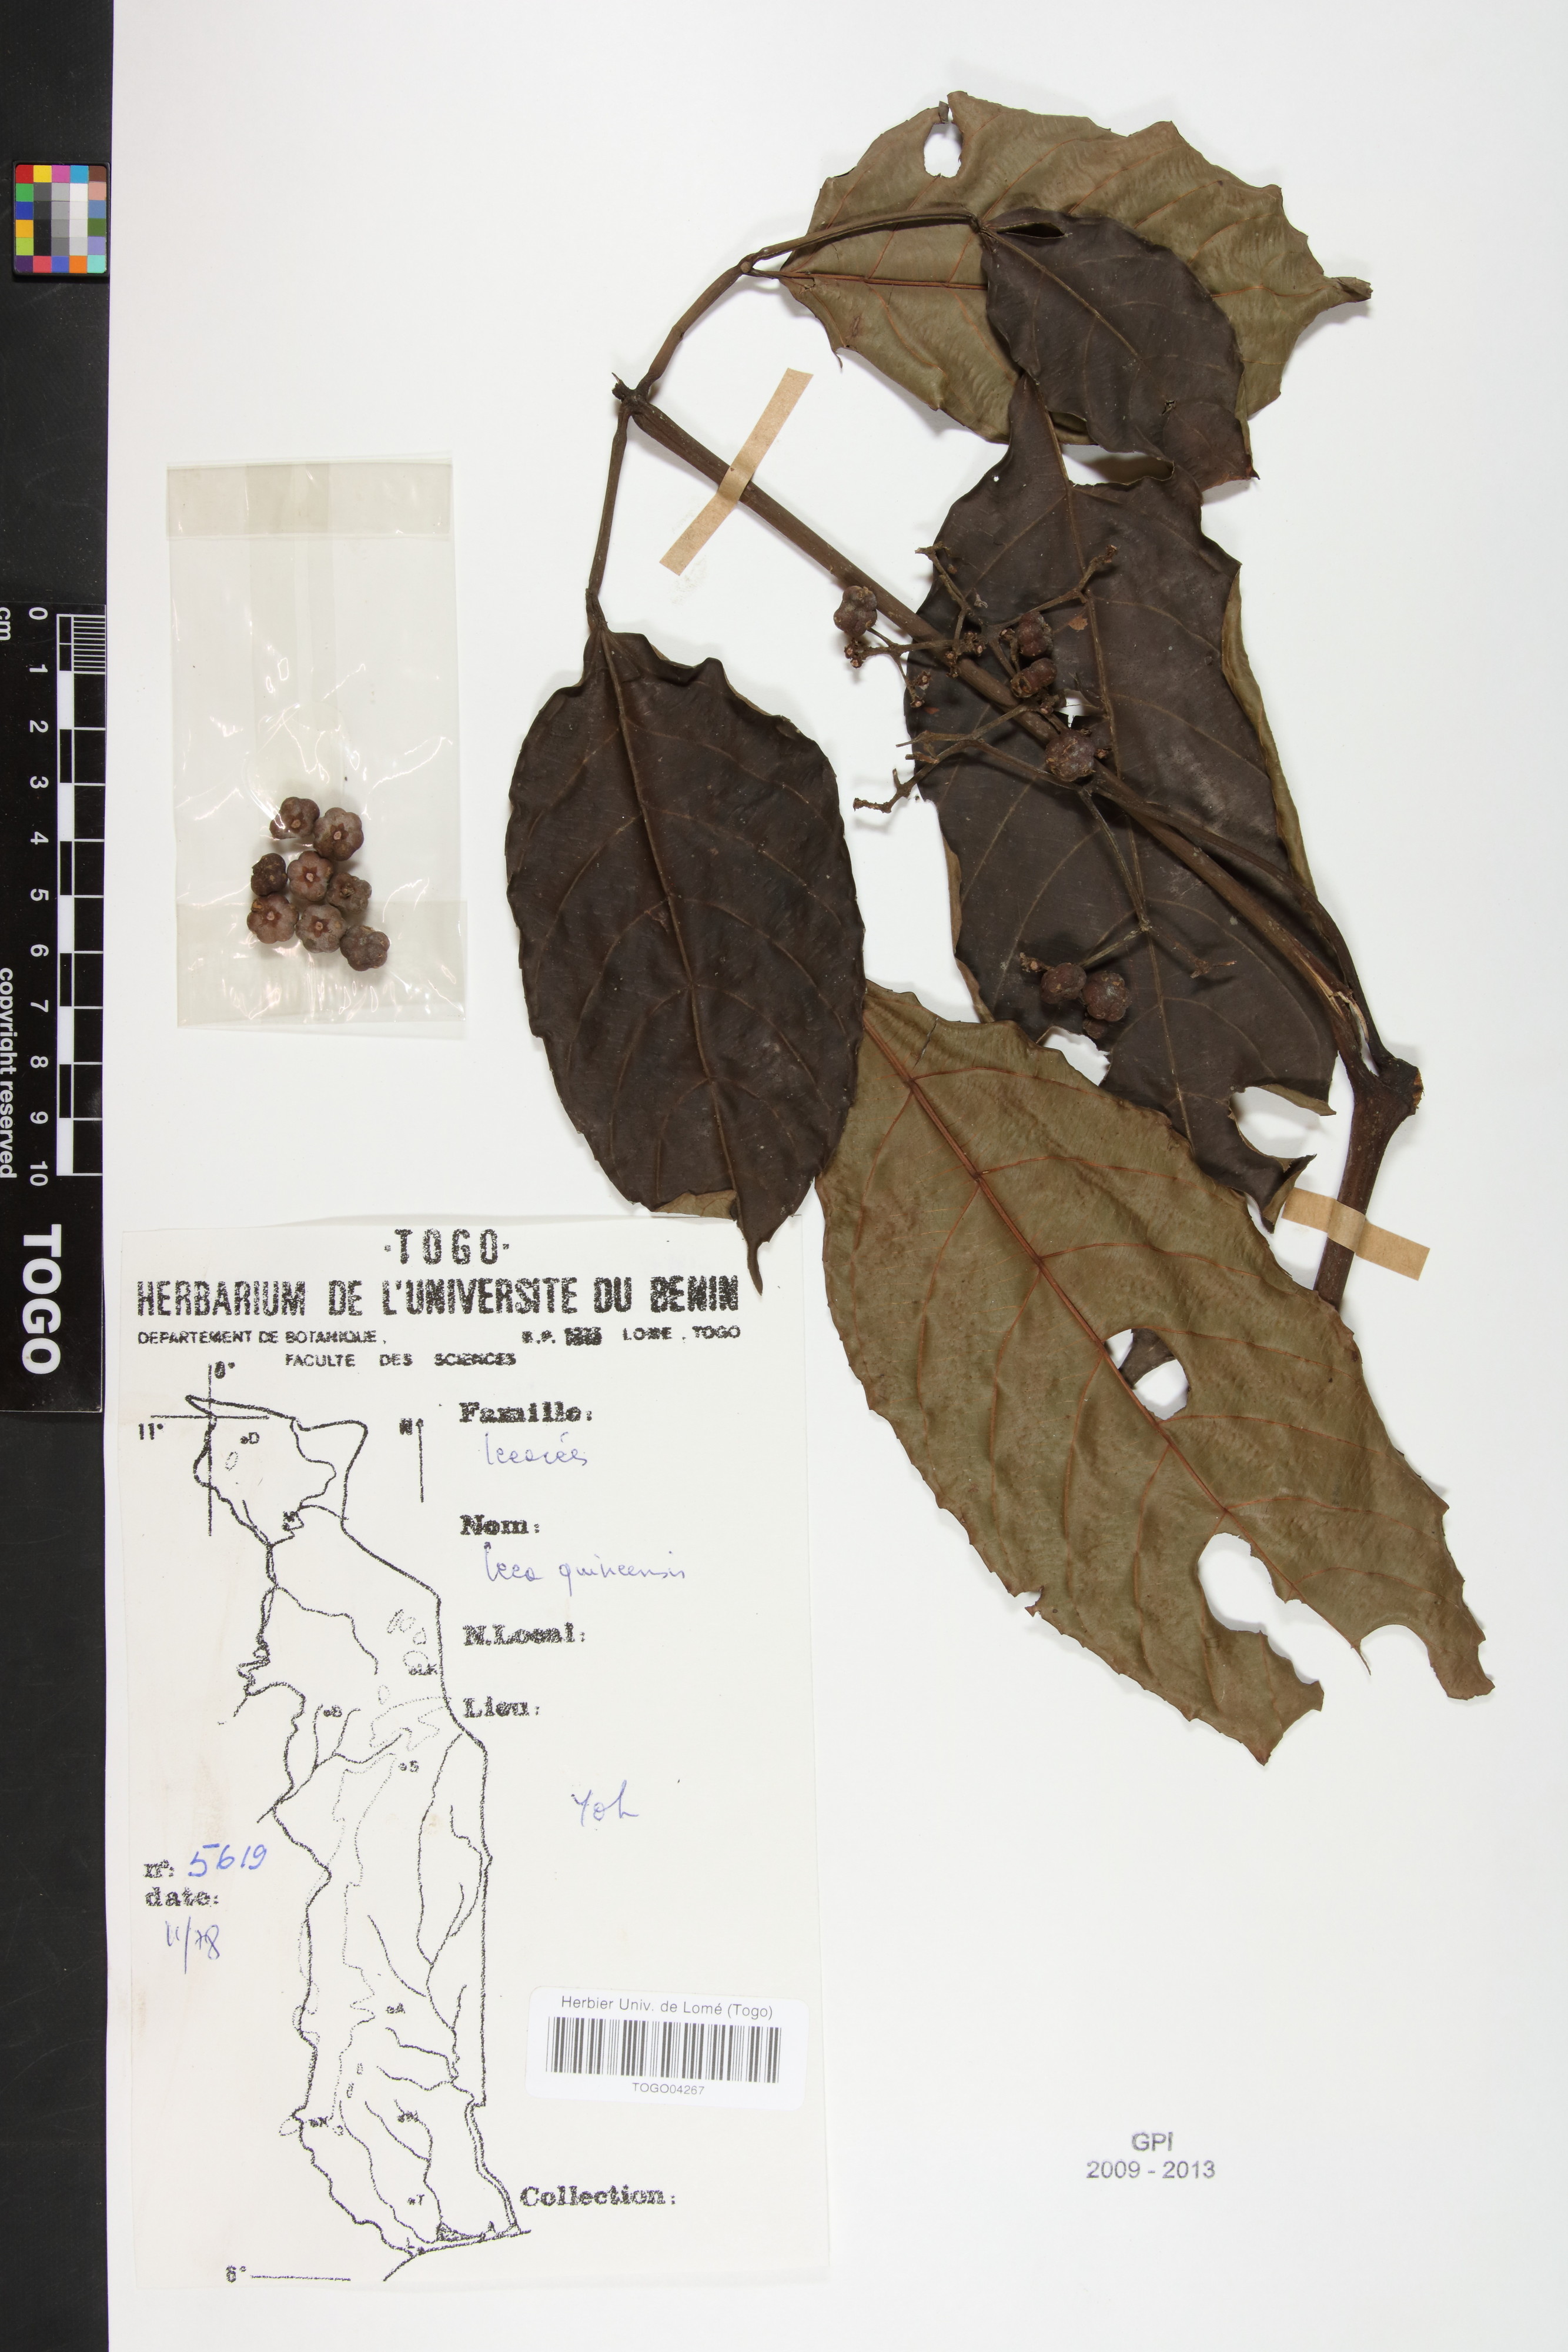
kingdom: Plantae
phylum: Tracheophyta
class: Magnoliopsida
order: Vitales
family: Vitaceae
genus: Leea
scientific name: Leea guineensis
